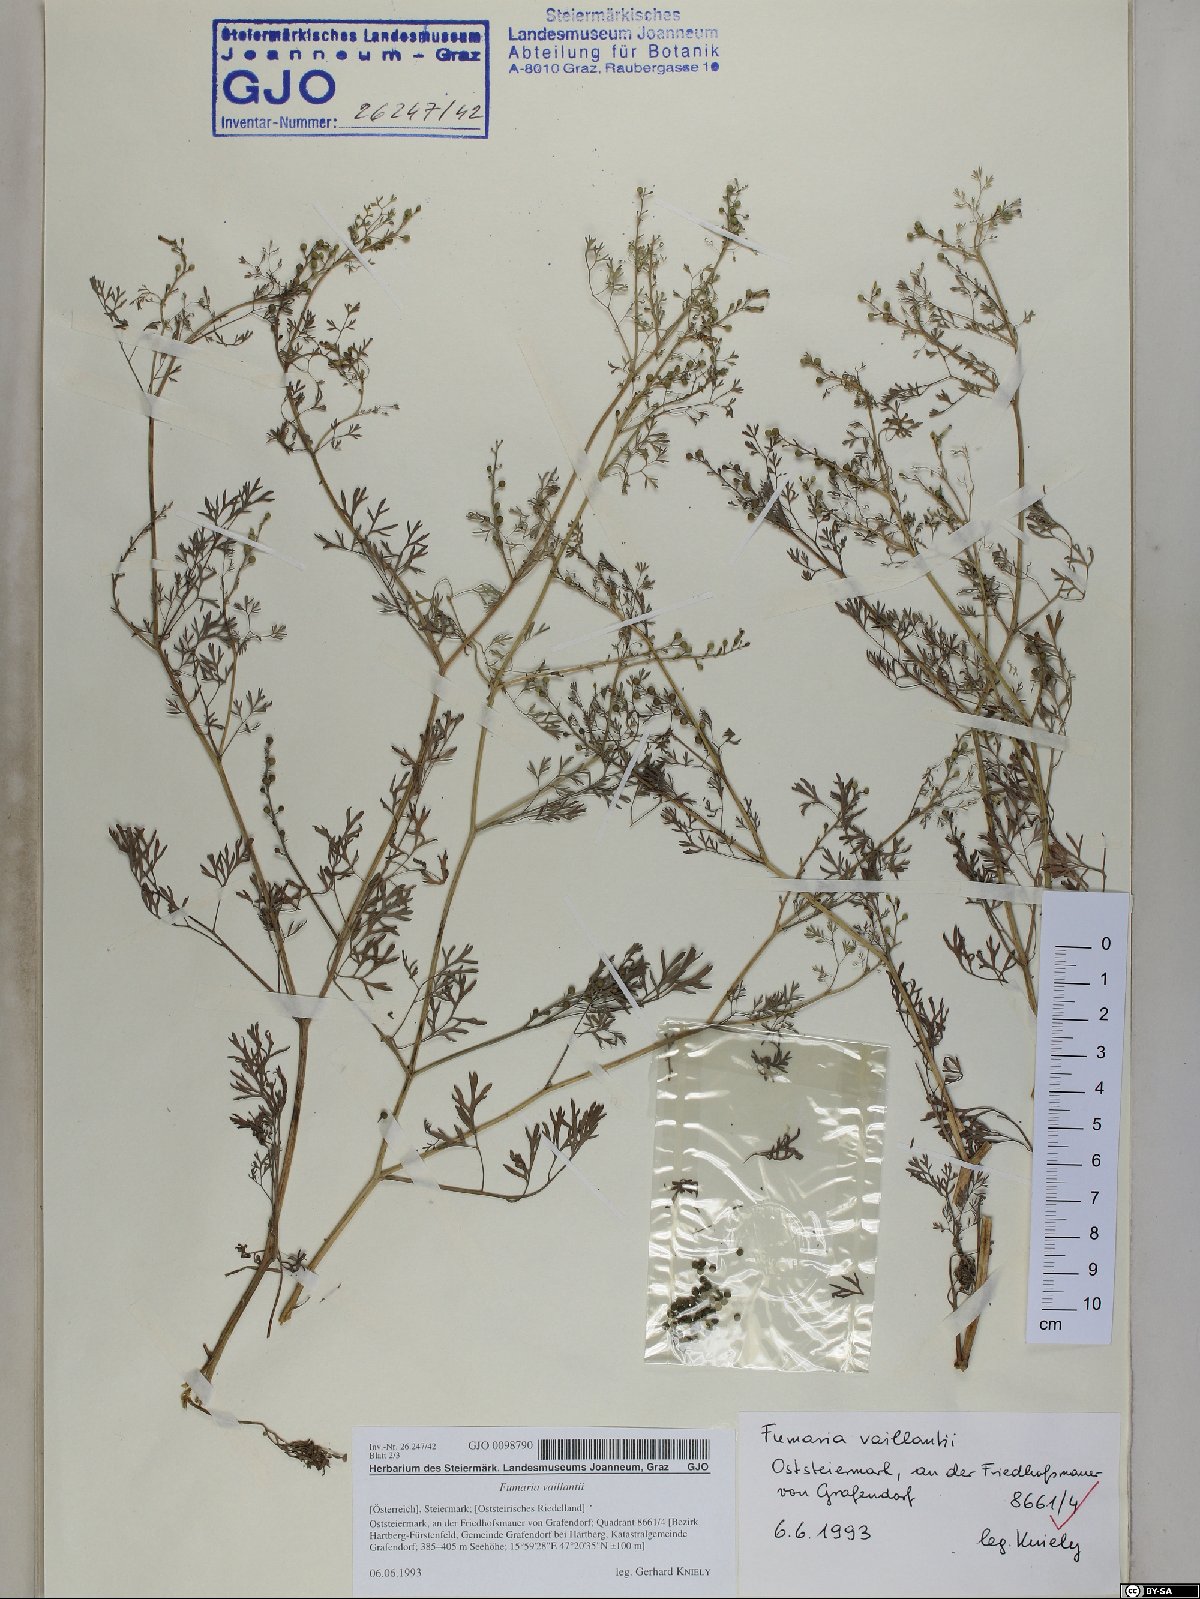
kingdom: Plantae
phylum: Tracheophyta
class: Magnoliopsida
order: Ranunculales
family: Papaveraceae
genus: Fumaria
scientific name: Fumaria vaillantii
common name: Few-flowered fumitory
